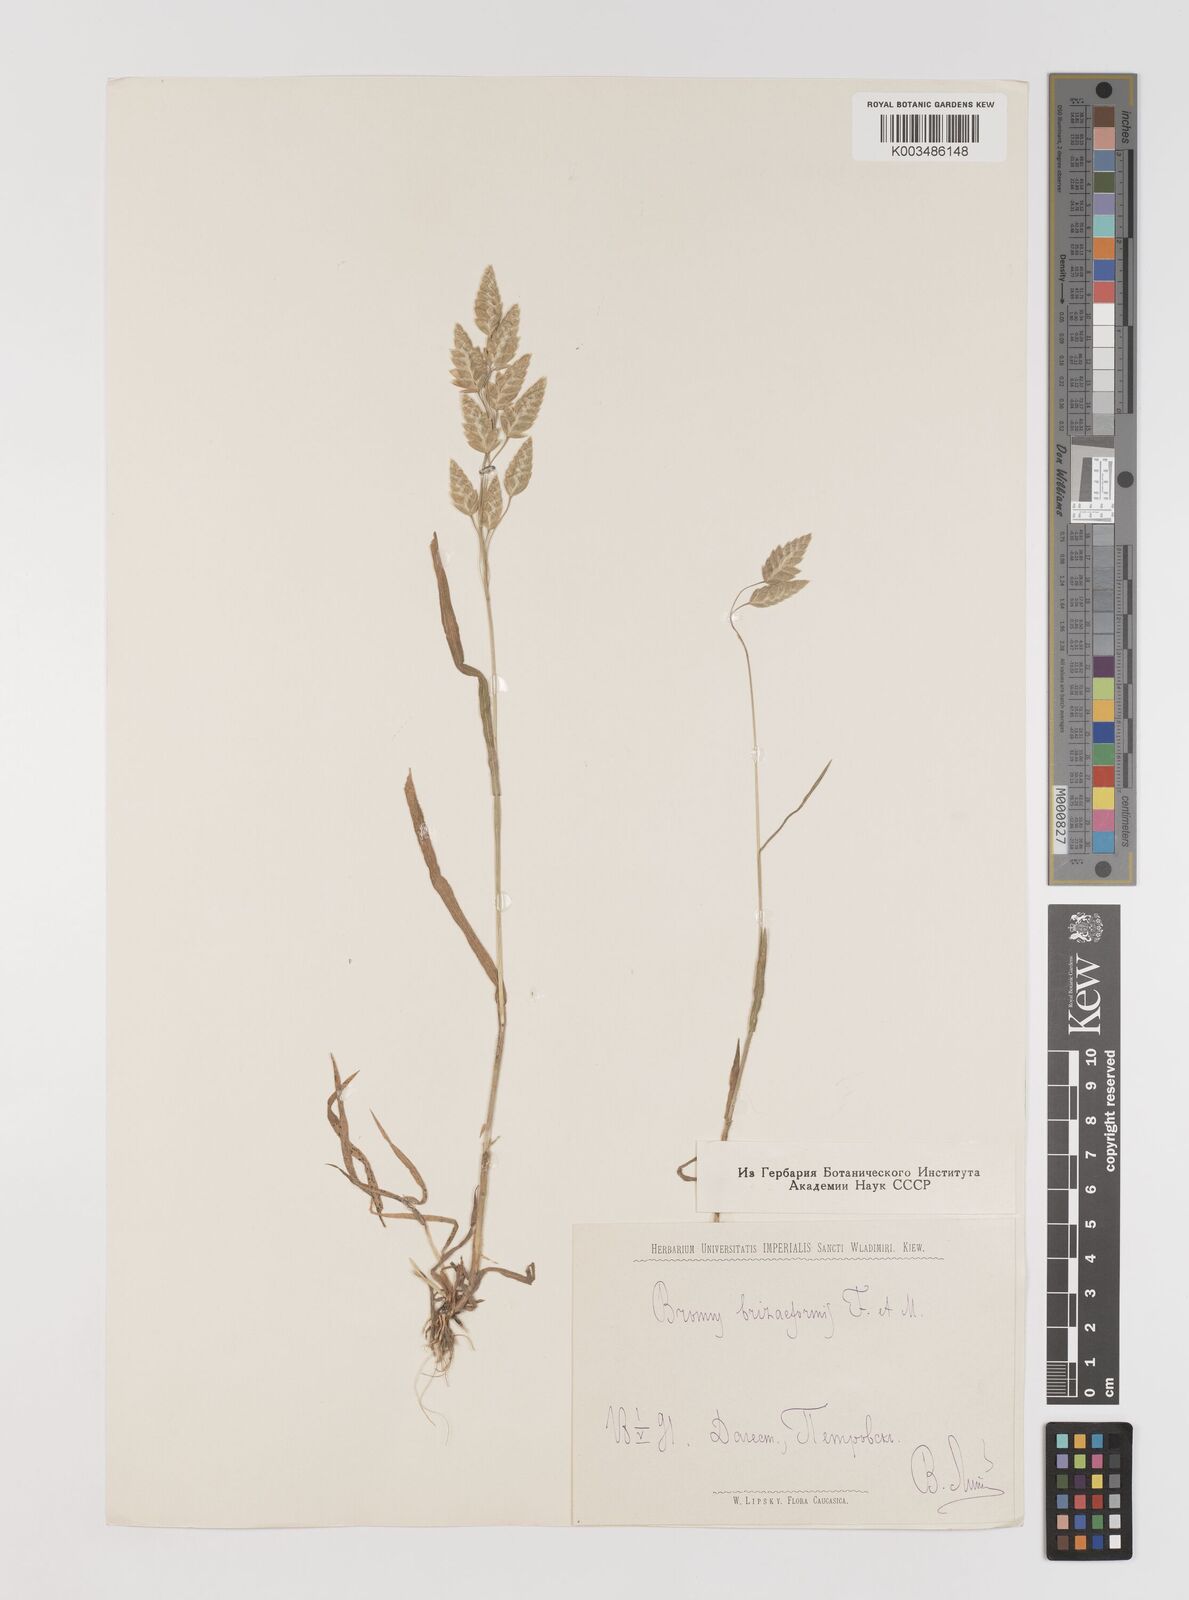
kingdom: Plantae
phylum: Tracheophyta
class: Liliopsida
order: Poales
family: Poaceae
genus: Bromus
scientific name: Bromus briziformis
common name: Rattlesnake brome
